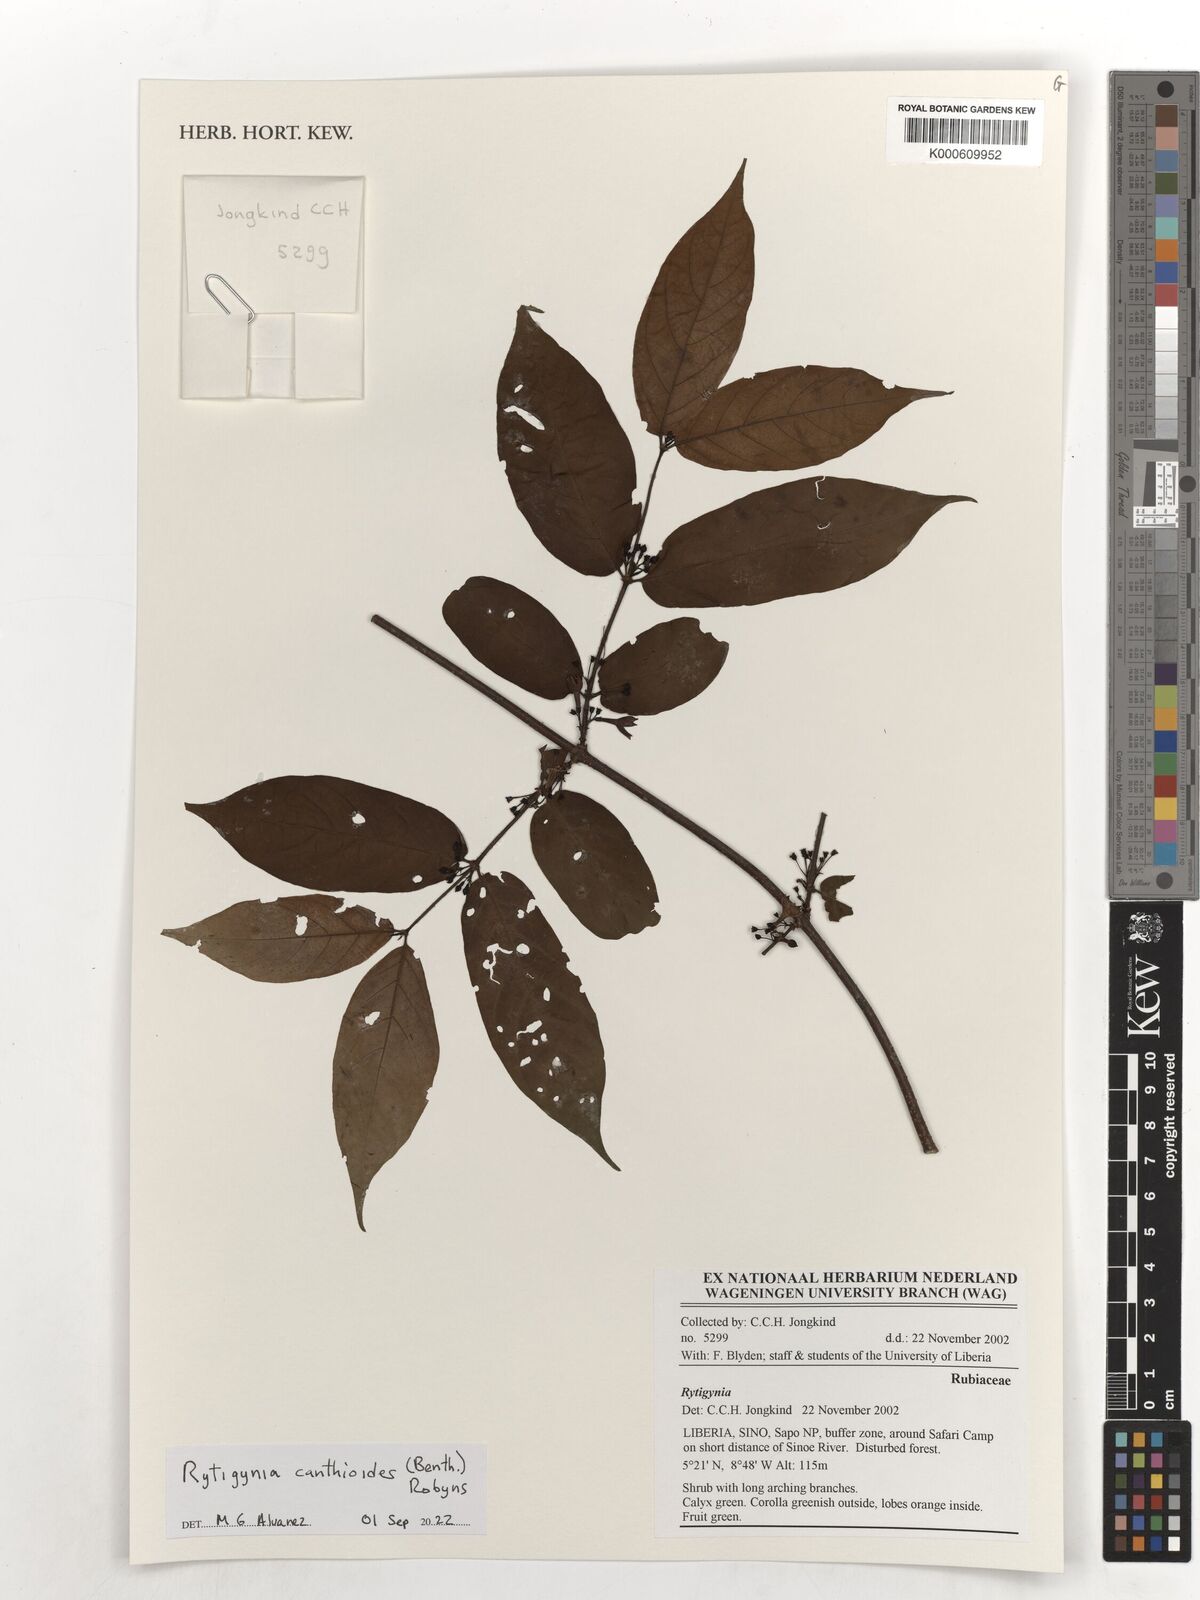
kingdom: Plantae
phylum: Tracheophyta
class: Magnoliopsida
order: Gentianales
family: Rubiaceae
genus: Rytigynia
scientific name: Rytigynia canthioides
